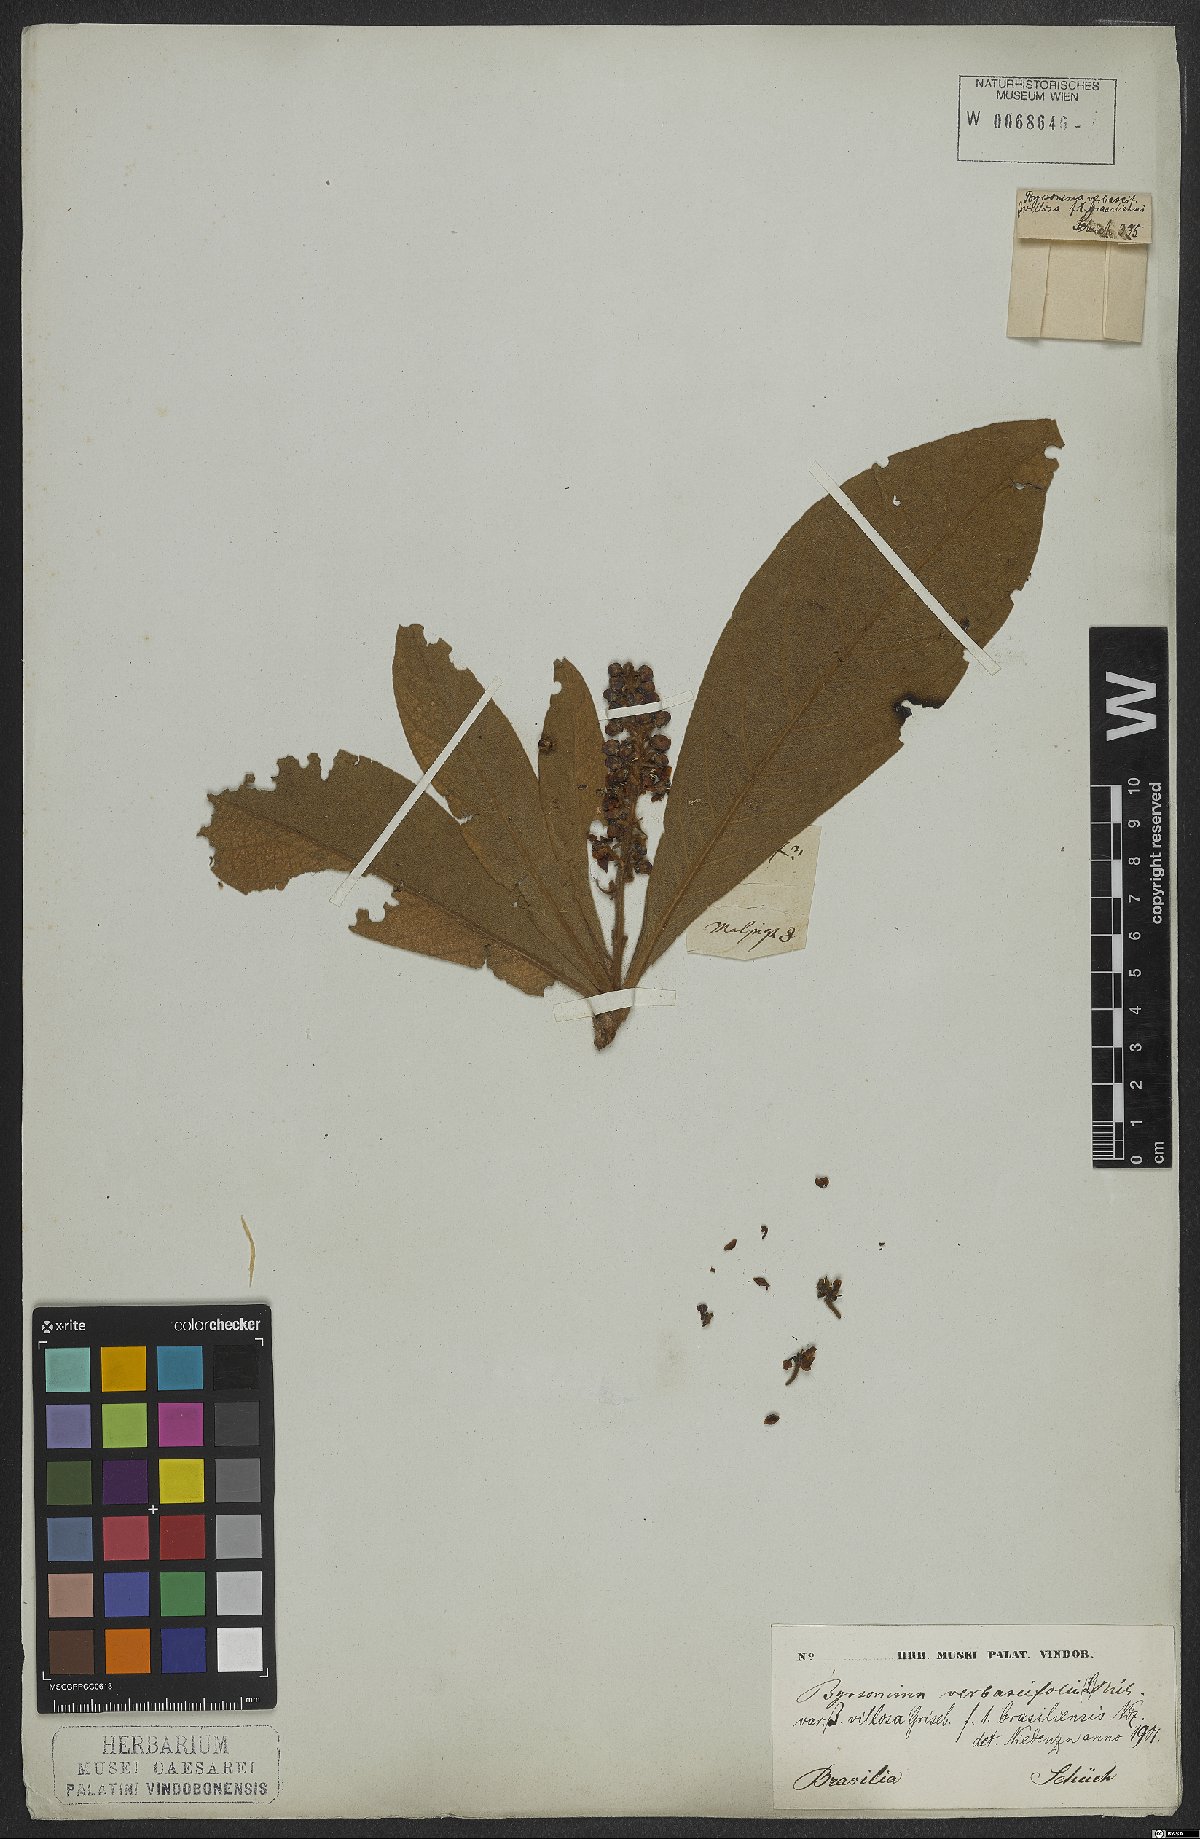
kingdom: Plantae
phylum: Tracheophyta
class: Magnoliopsida
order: Malpighiales
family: Malpighiaceae
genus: Byrsonima
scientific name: Byrsonima verbascifolia
